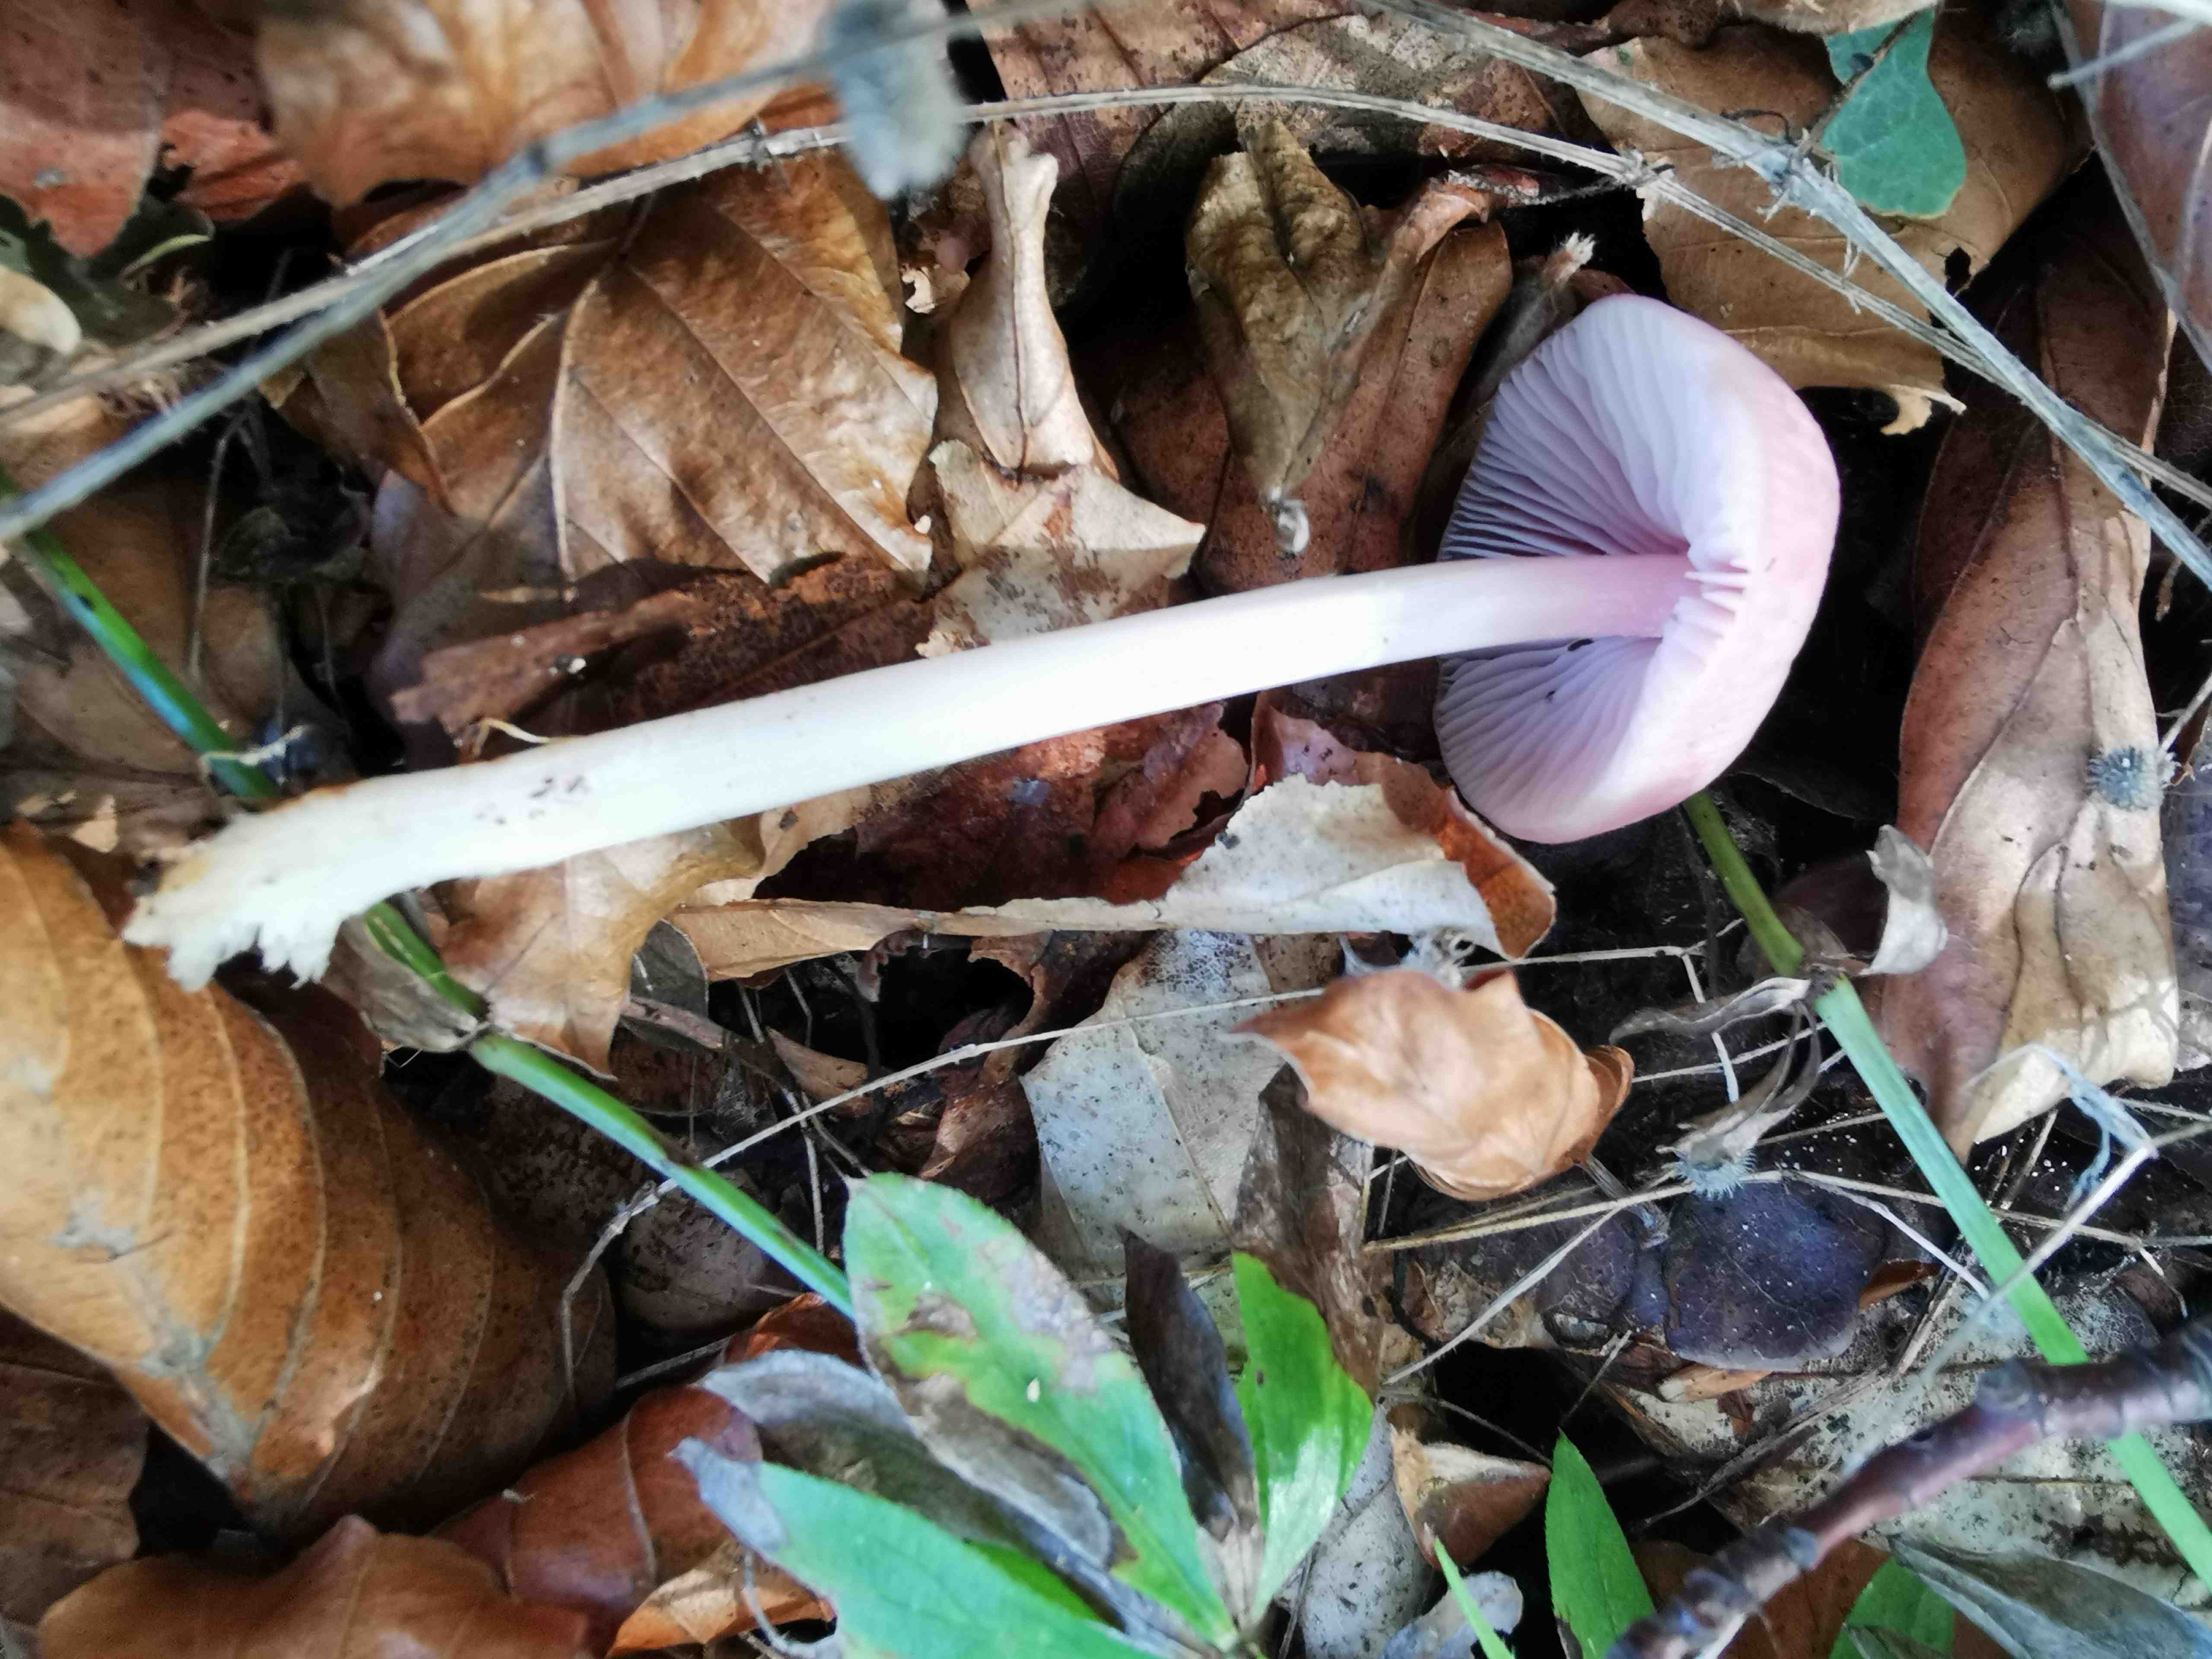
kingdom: Fungi
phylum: Basidiomycota
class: Agaricomycetes
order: Agaricales
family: Mycenaceae
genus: Mycena
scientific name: Mycena rosea
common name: rosa huesvamp
